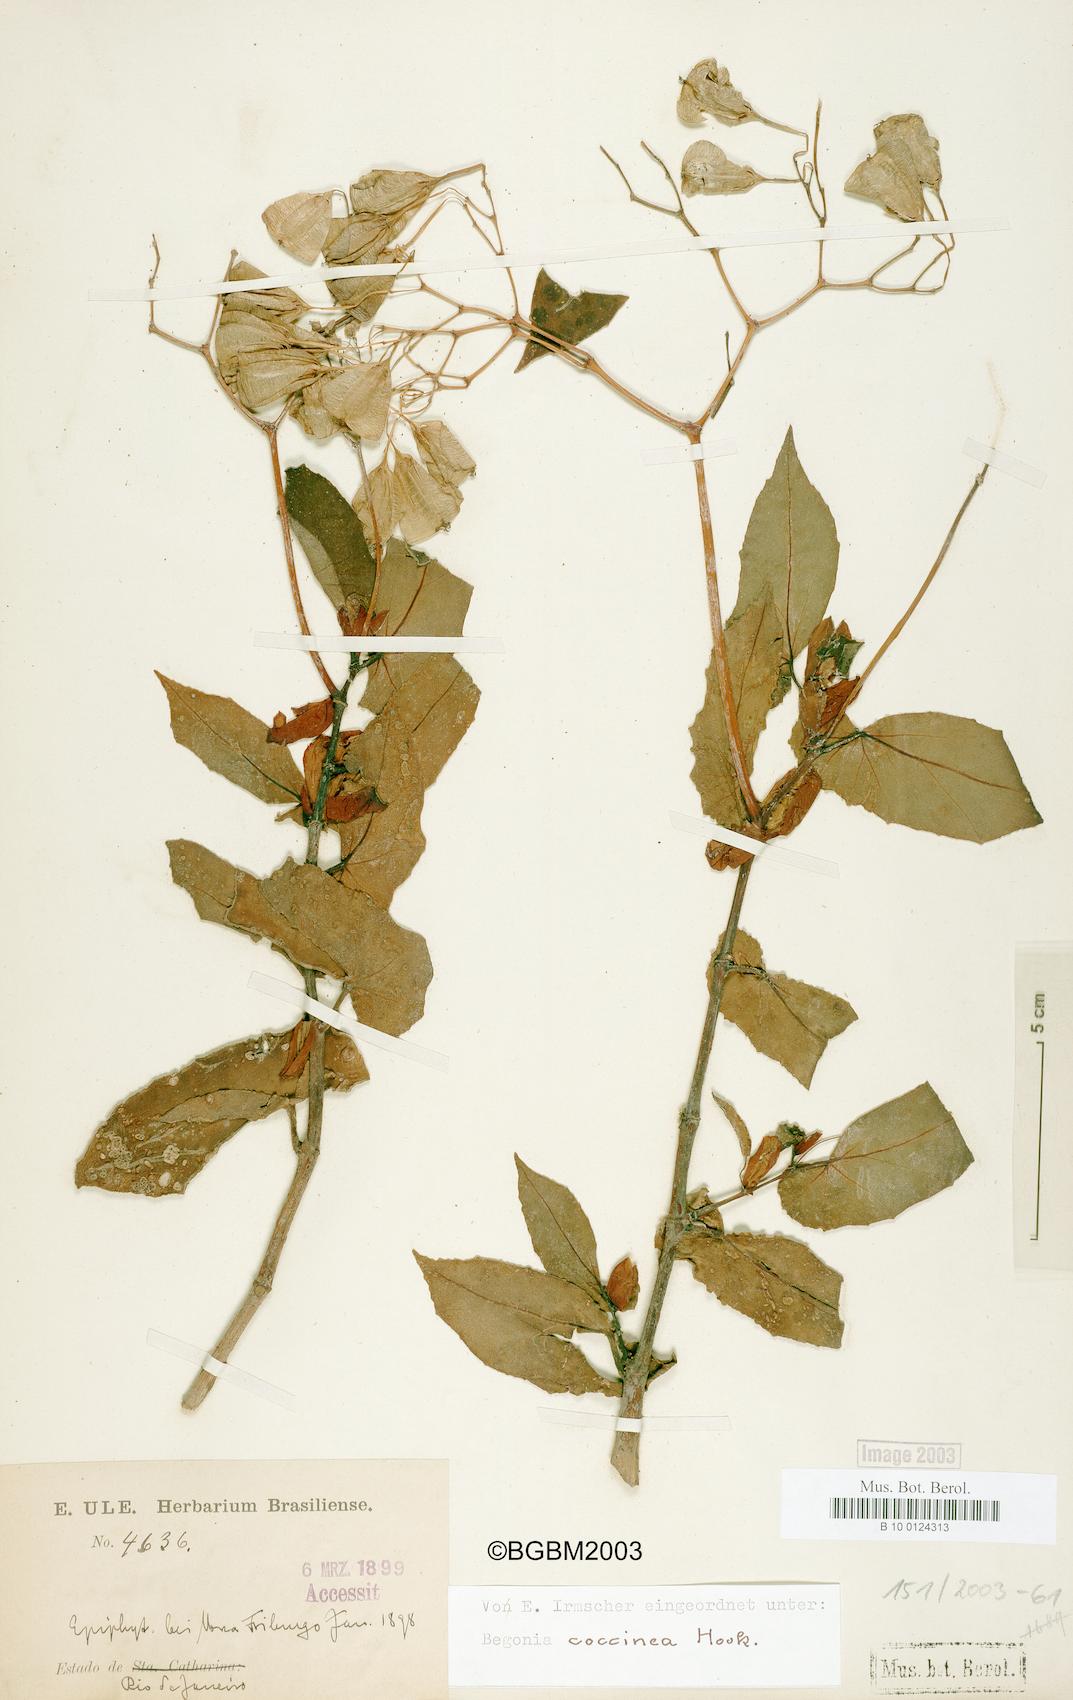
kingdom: Plantae
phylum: Tracheophyta
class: Magnoliopsida
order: Cucurbitales
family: Begoniaceae
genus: Begonia
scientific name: Begonia coccinea
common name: Angel-wing begonia
